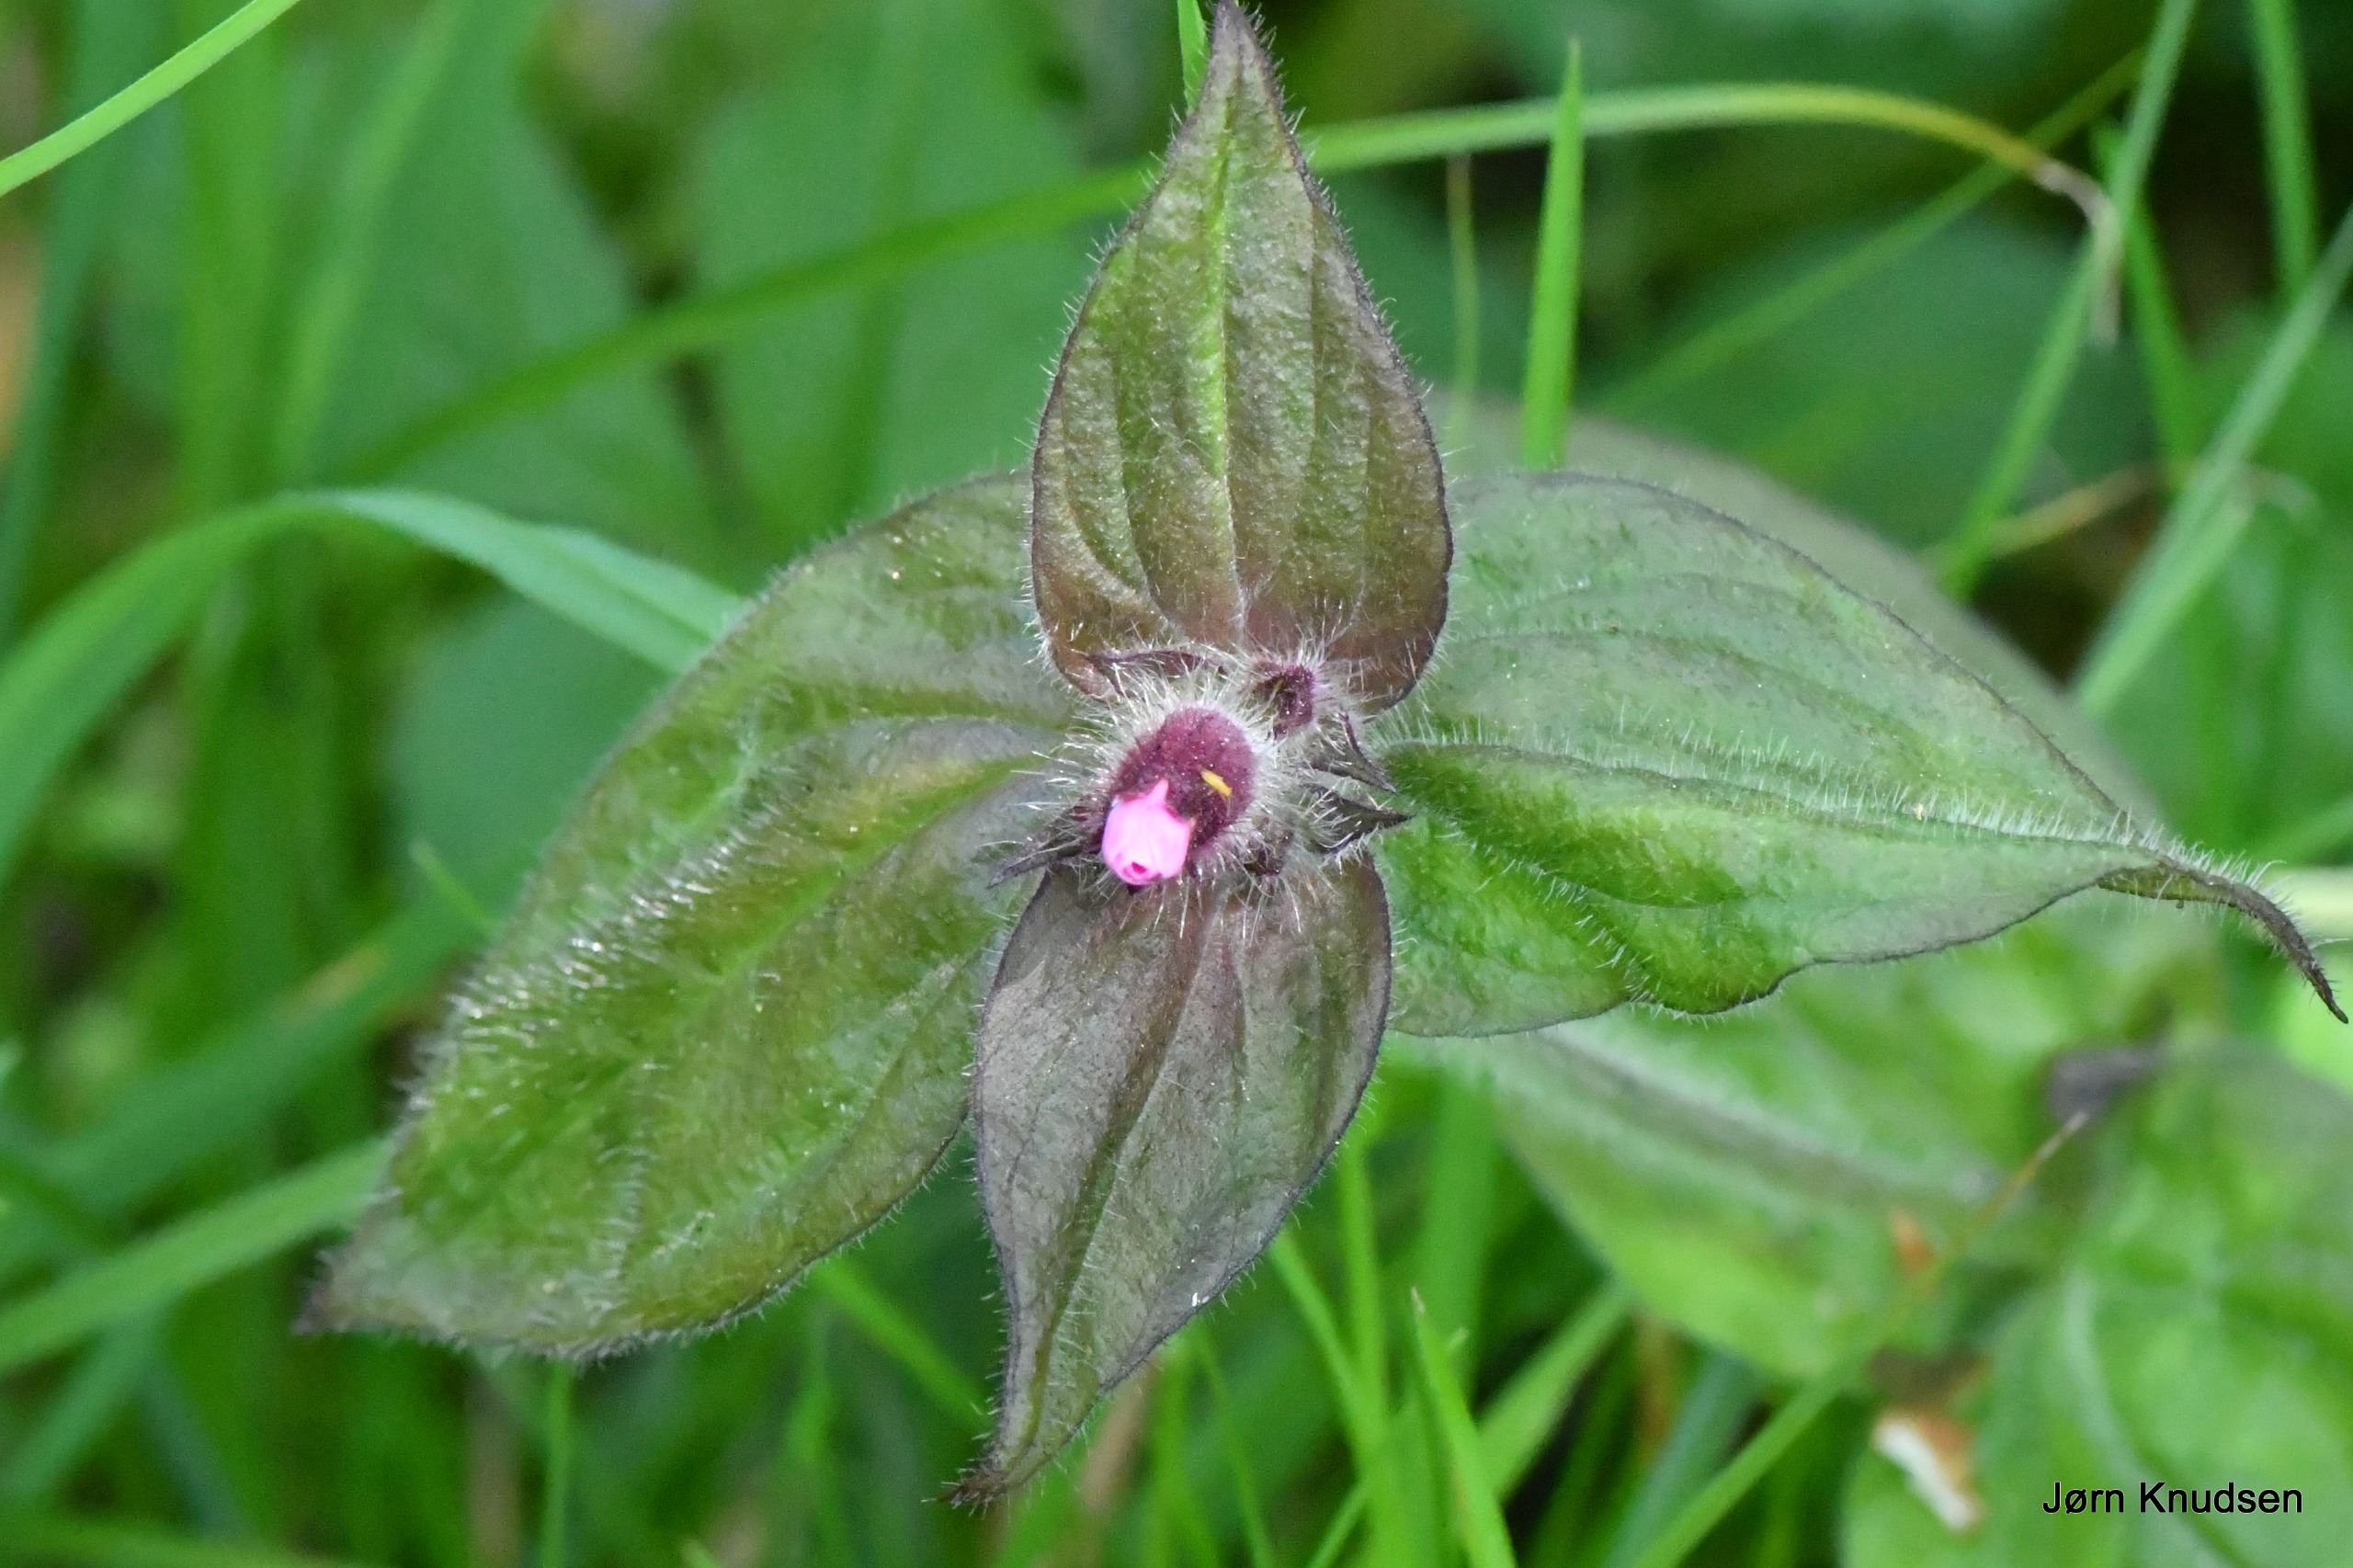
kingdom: Plantae
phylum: Tracheophyta
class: Magnoliopsida
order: Caryophyllales
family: Caryophyllaceae
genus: Silene
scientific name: Silene dioica
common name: Dagpragtstjerne
